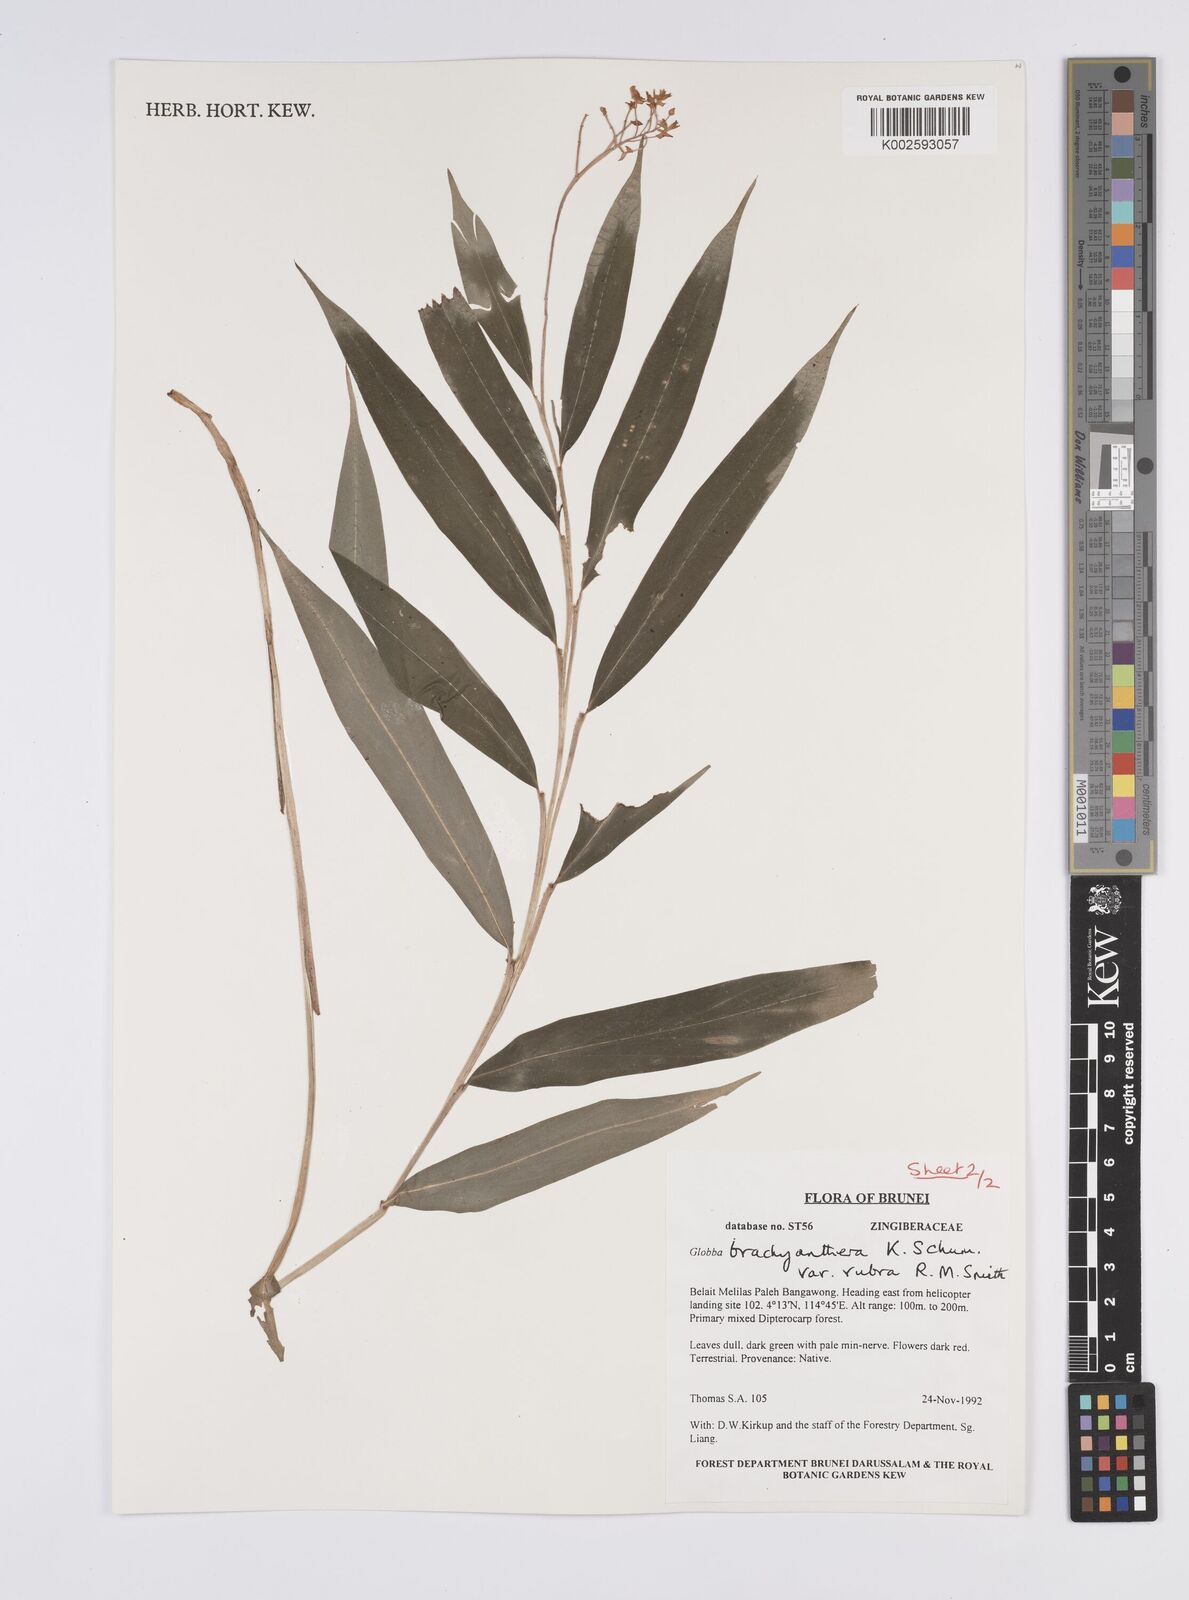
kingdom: Plantae
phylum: Tracheophyta
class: Liliopsida
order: Zingiberales
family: Zingiberaceae
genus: Globba
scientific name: Globba brachyanthera
